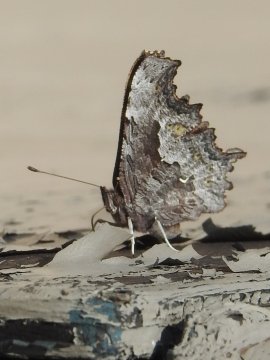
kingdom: Animalia
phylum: Arthropoda
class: Insecta
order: Lepidoptera
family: Nymphalidae
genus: Polygonia
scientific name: Polygonia faunus
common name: Green Comma
